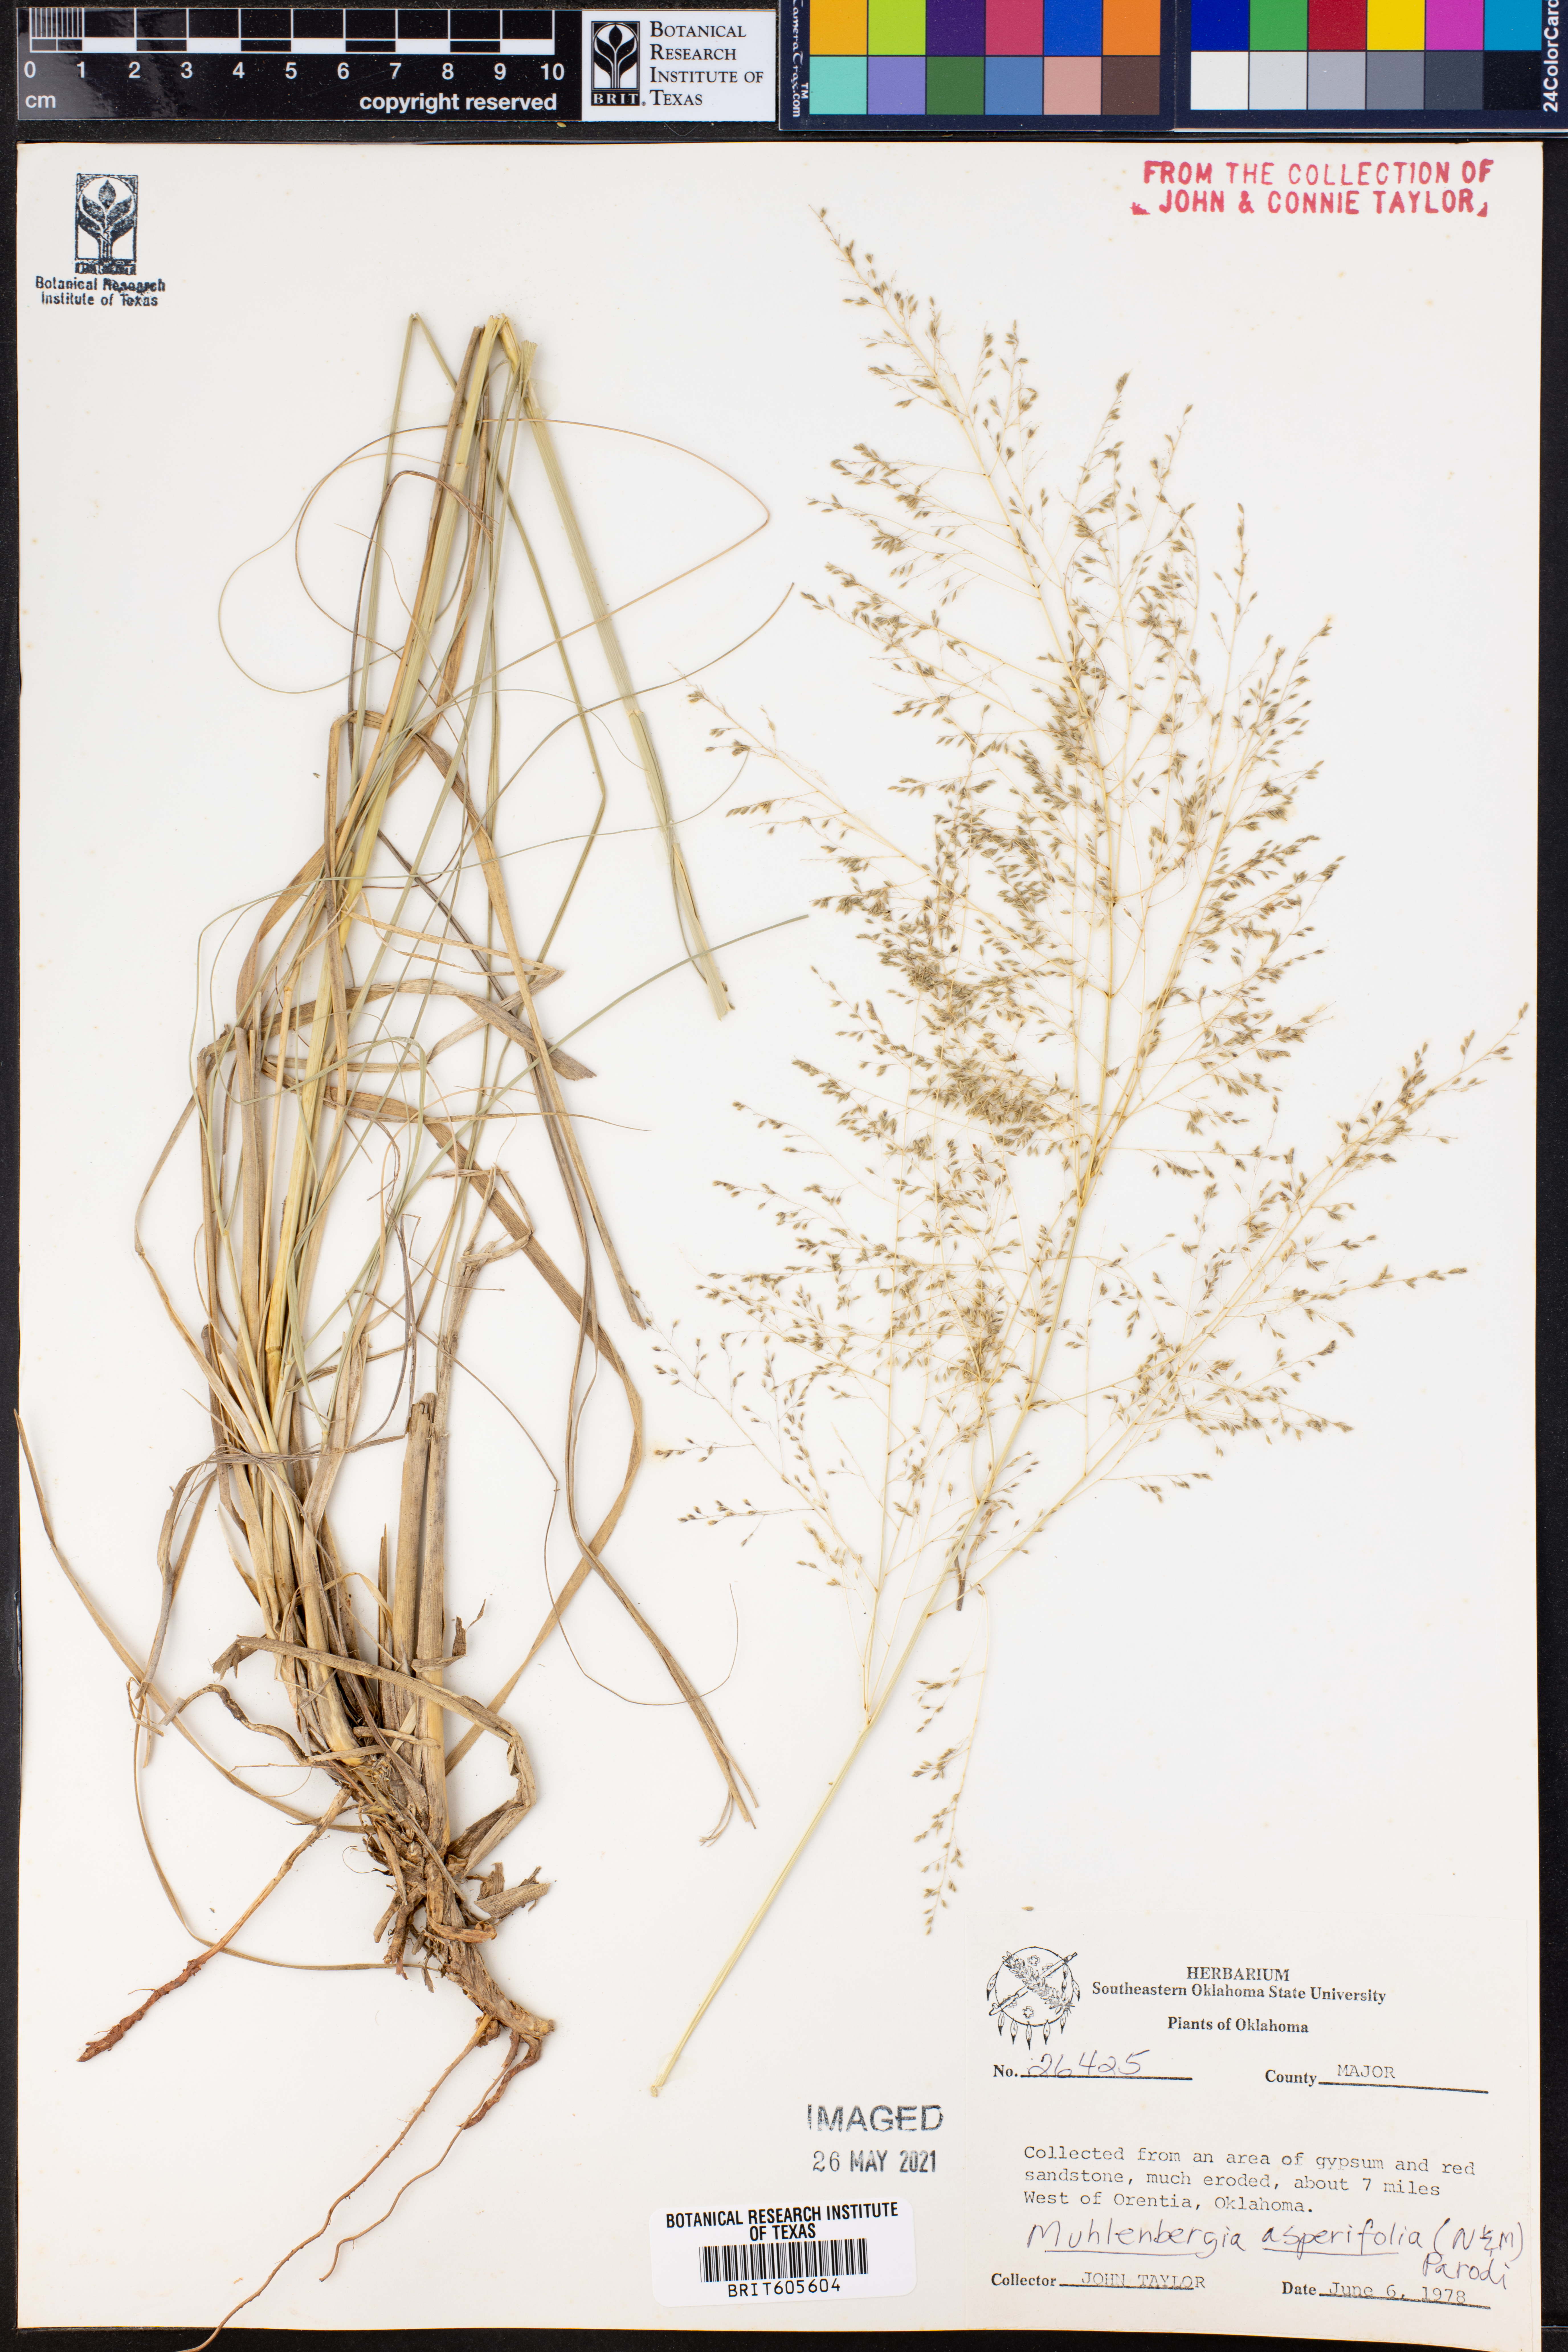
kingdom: Plantae
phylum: Tracheophyta
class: Liliopsida
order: Poales
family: Poaceae
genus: Muhlenbergia
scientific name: Muhlenbergia asperifolia
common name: Alkali muhly
